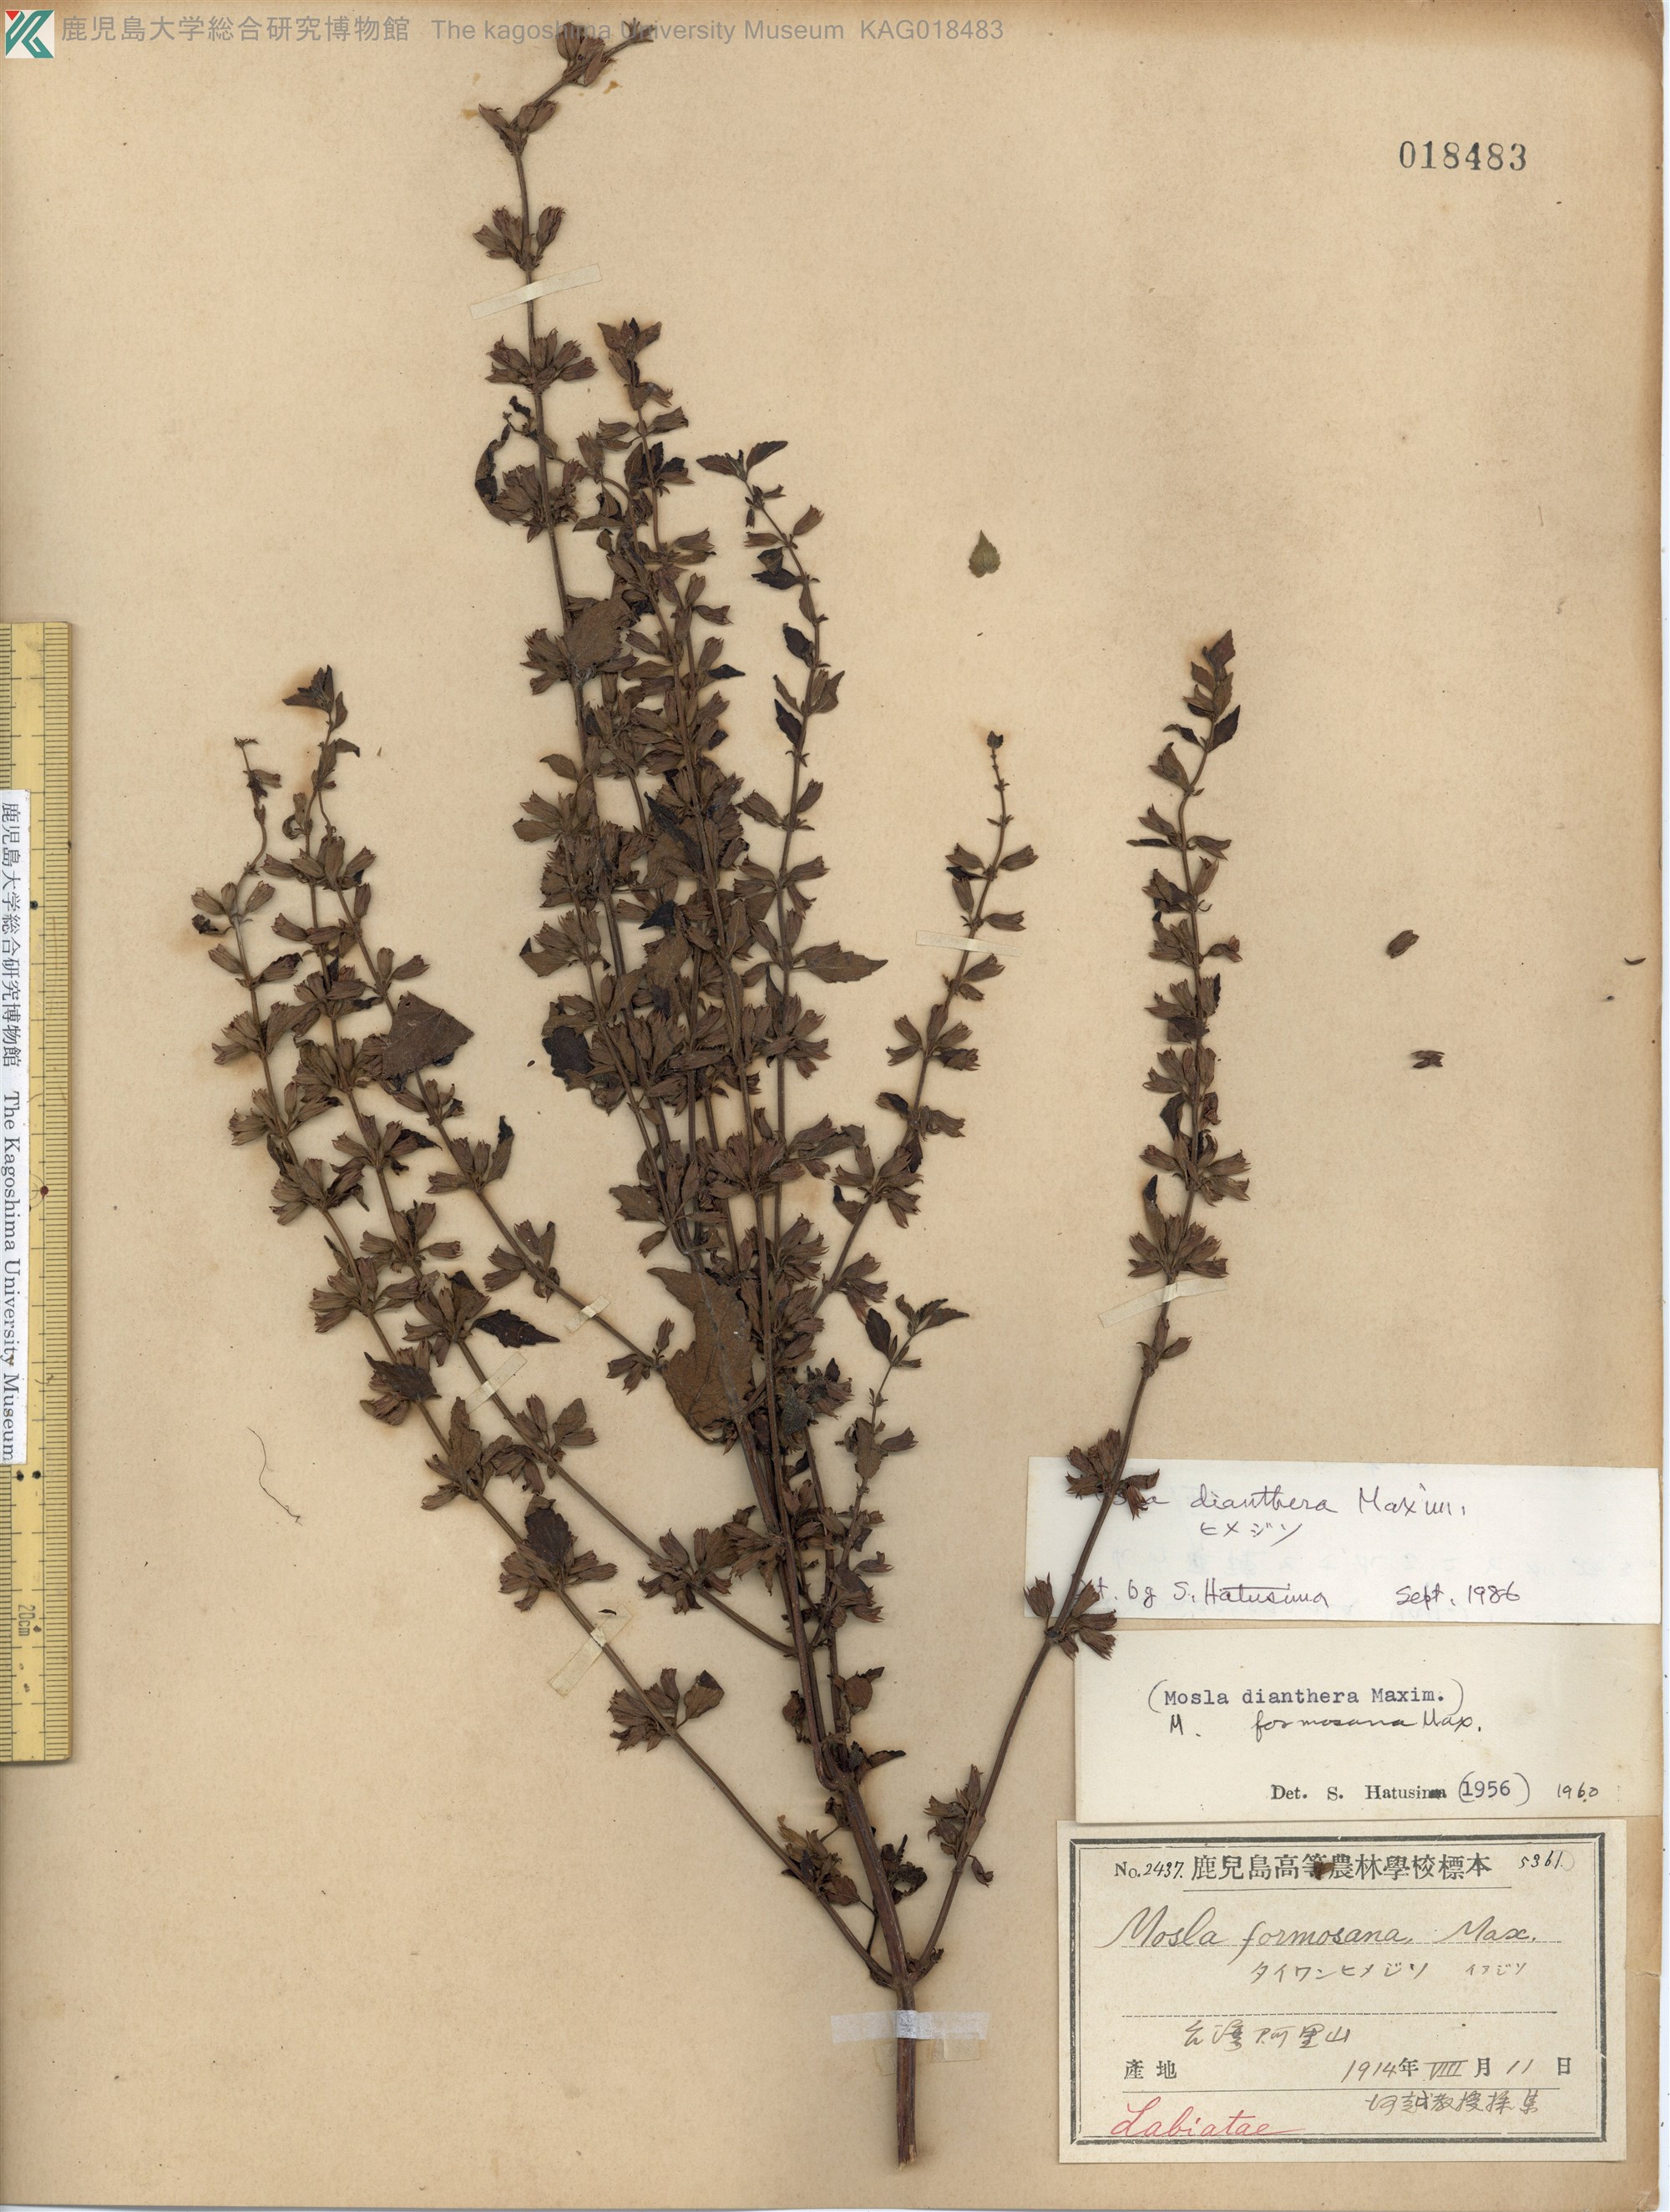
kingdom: Plantae
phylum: Tracheophyta
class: Magnoliopsida
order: Lamiales
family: Lamiaceae
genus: Mosla
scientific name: Mosla dianthera
